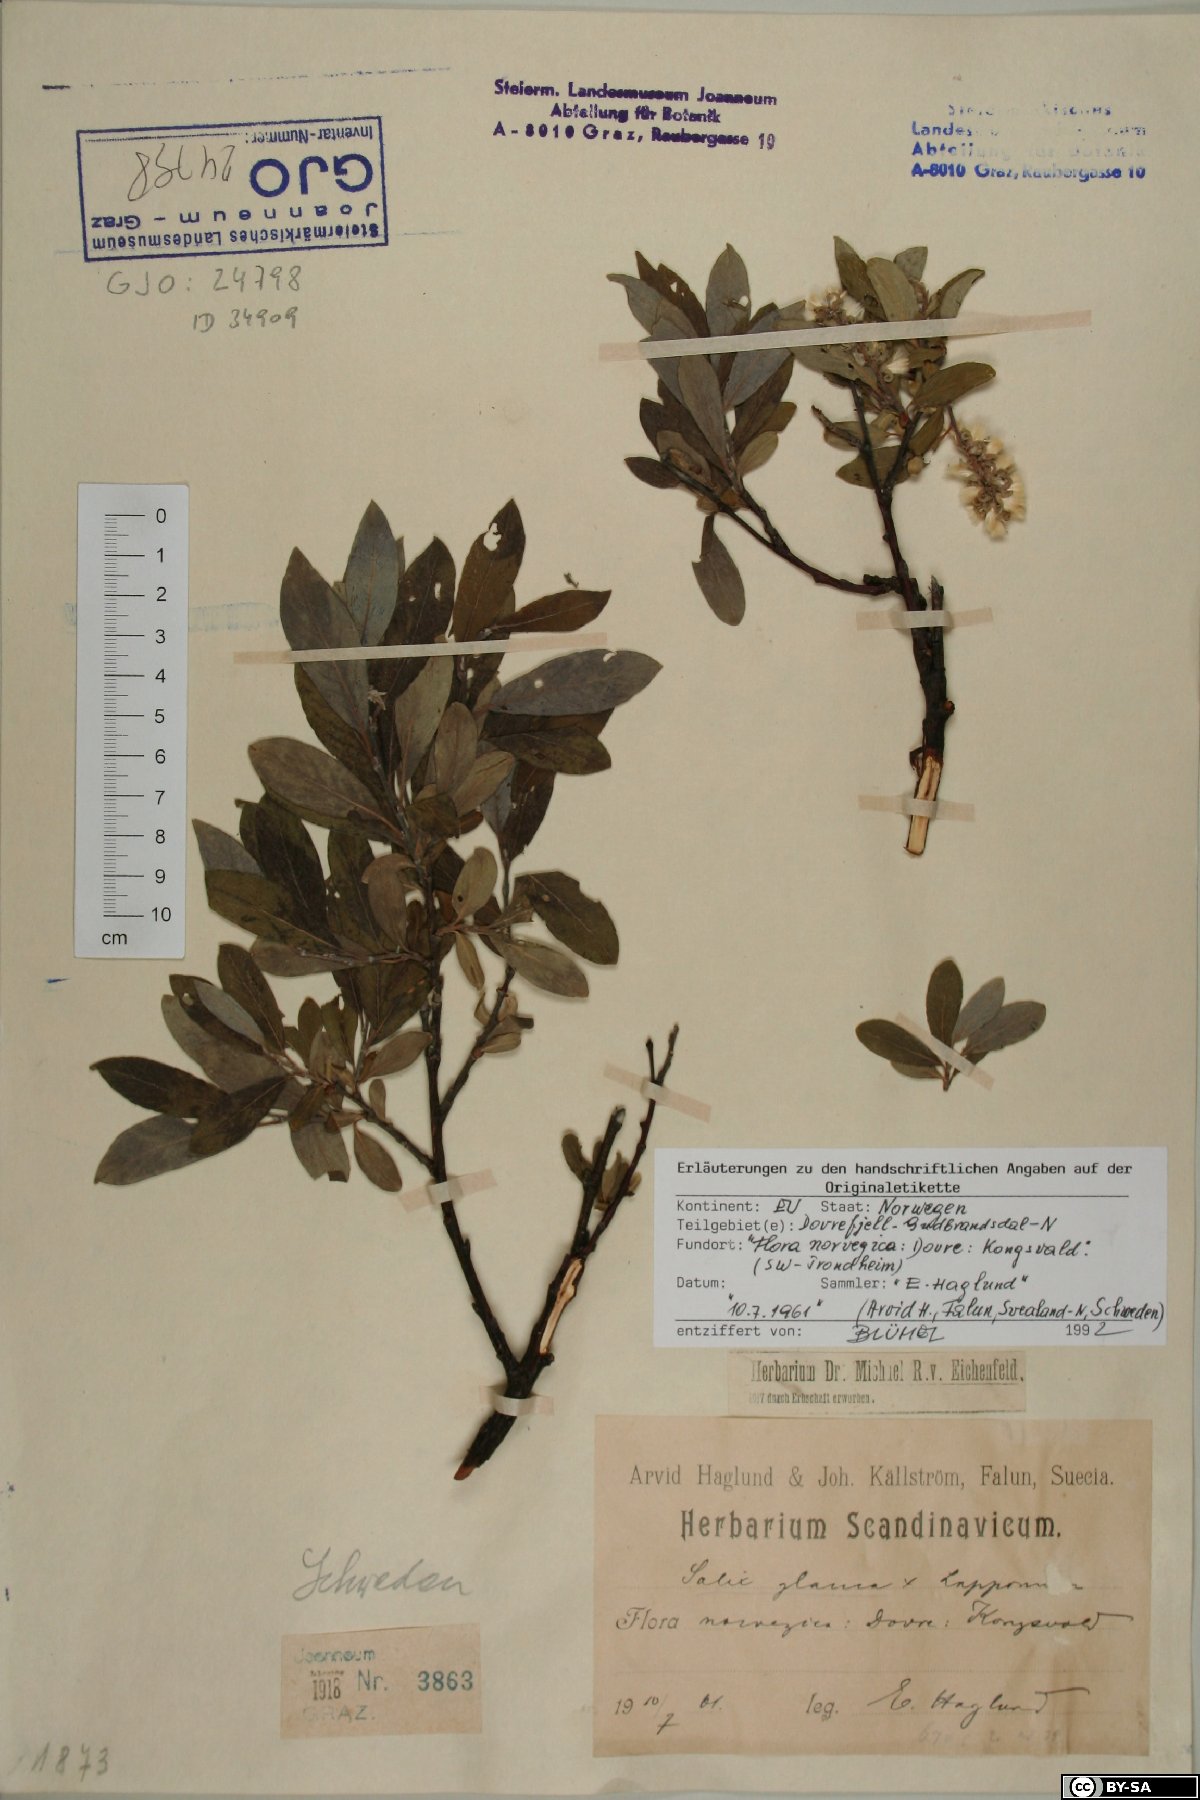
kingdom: Plantae
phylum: Tracheophyta
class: Magnoliopsida
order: Malpighiales
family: Salicaceae
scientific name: Salicaceae
